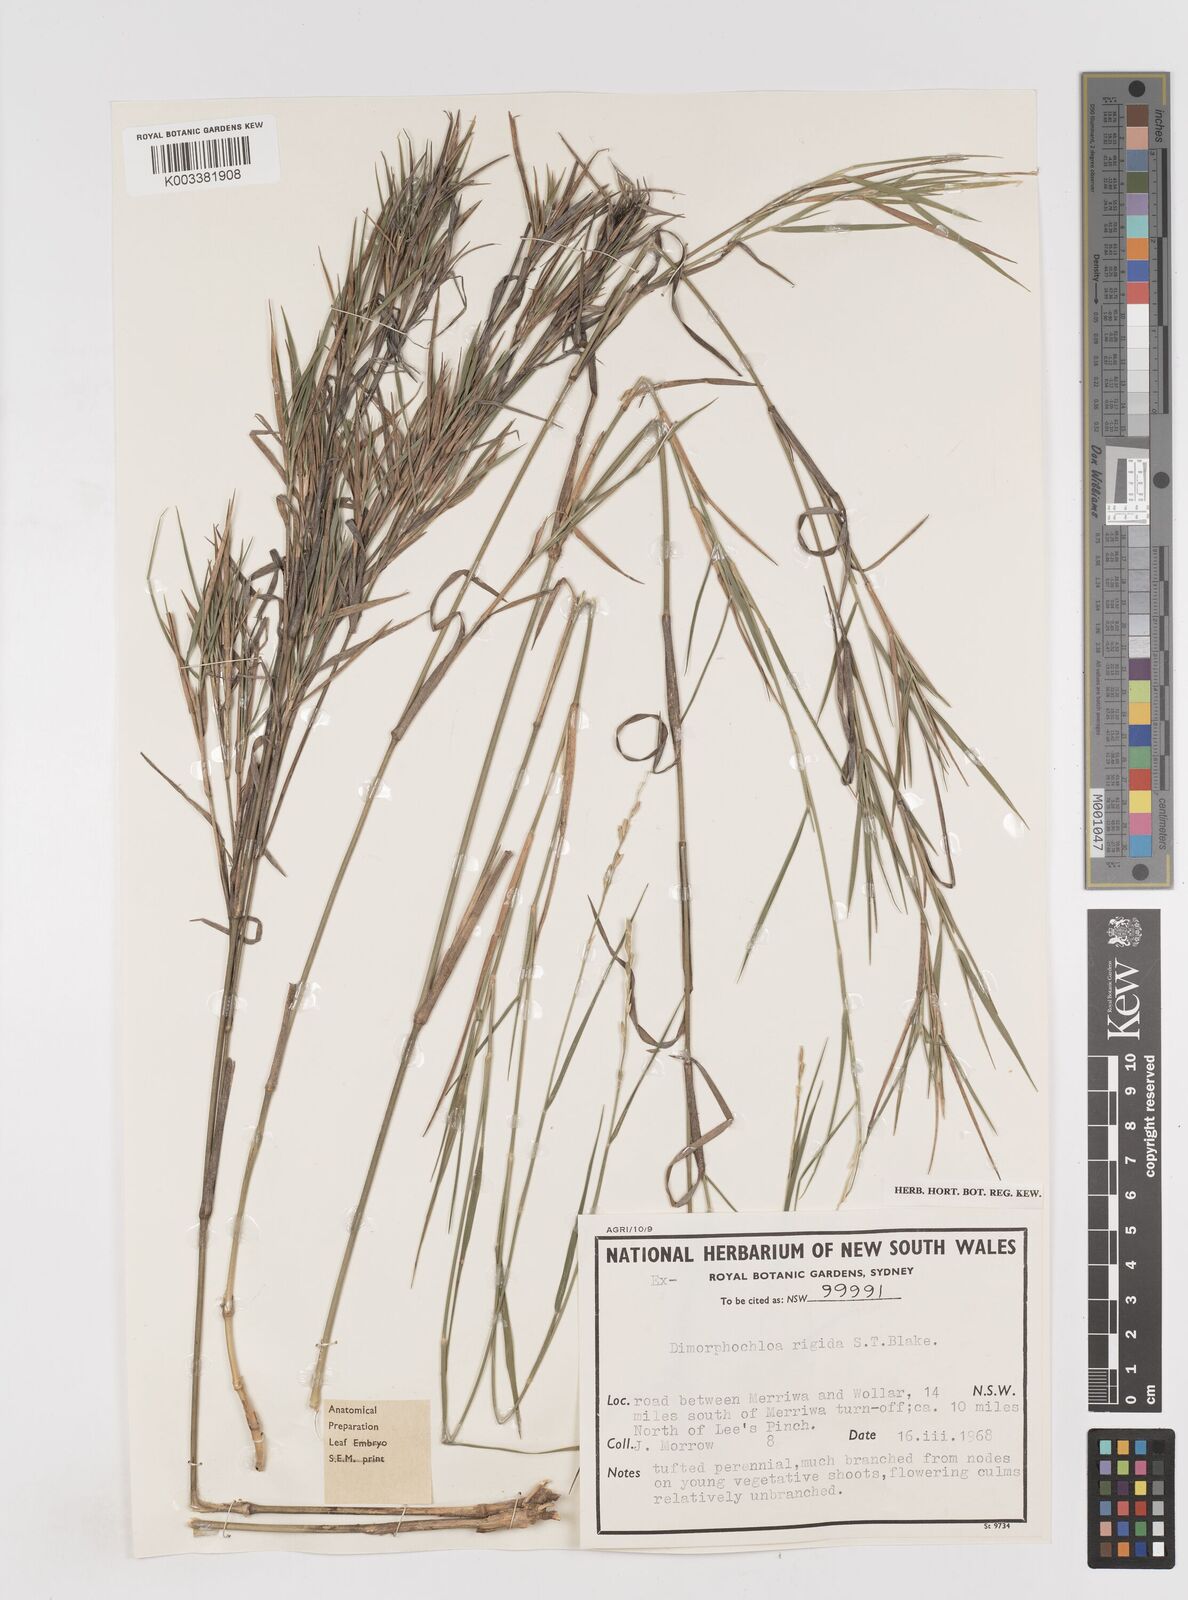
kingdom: Plantae
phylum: Tracheophyta
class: Liliopsida
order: Poales
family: Poaceae
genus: Dimorphochloa
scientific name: Dimorphochloa rigida
